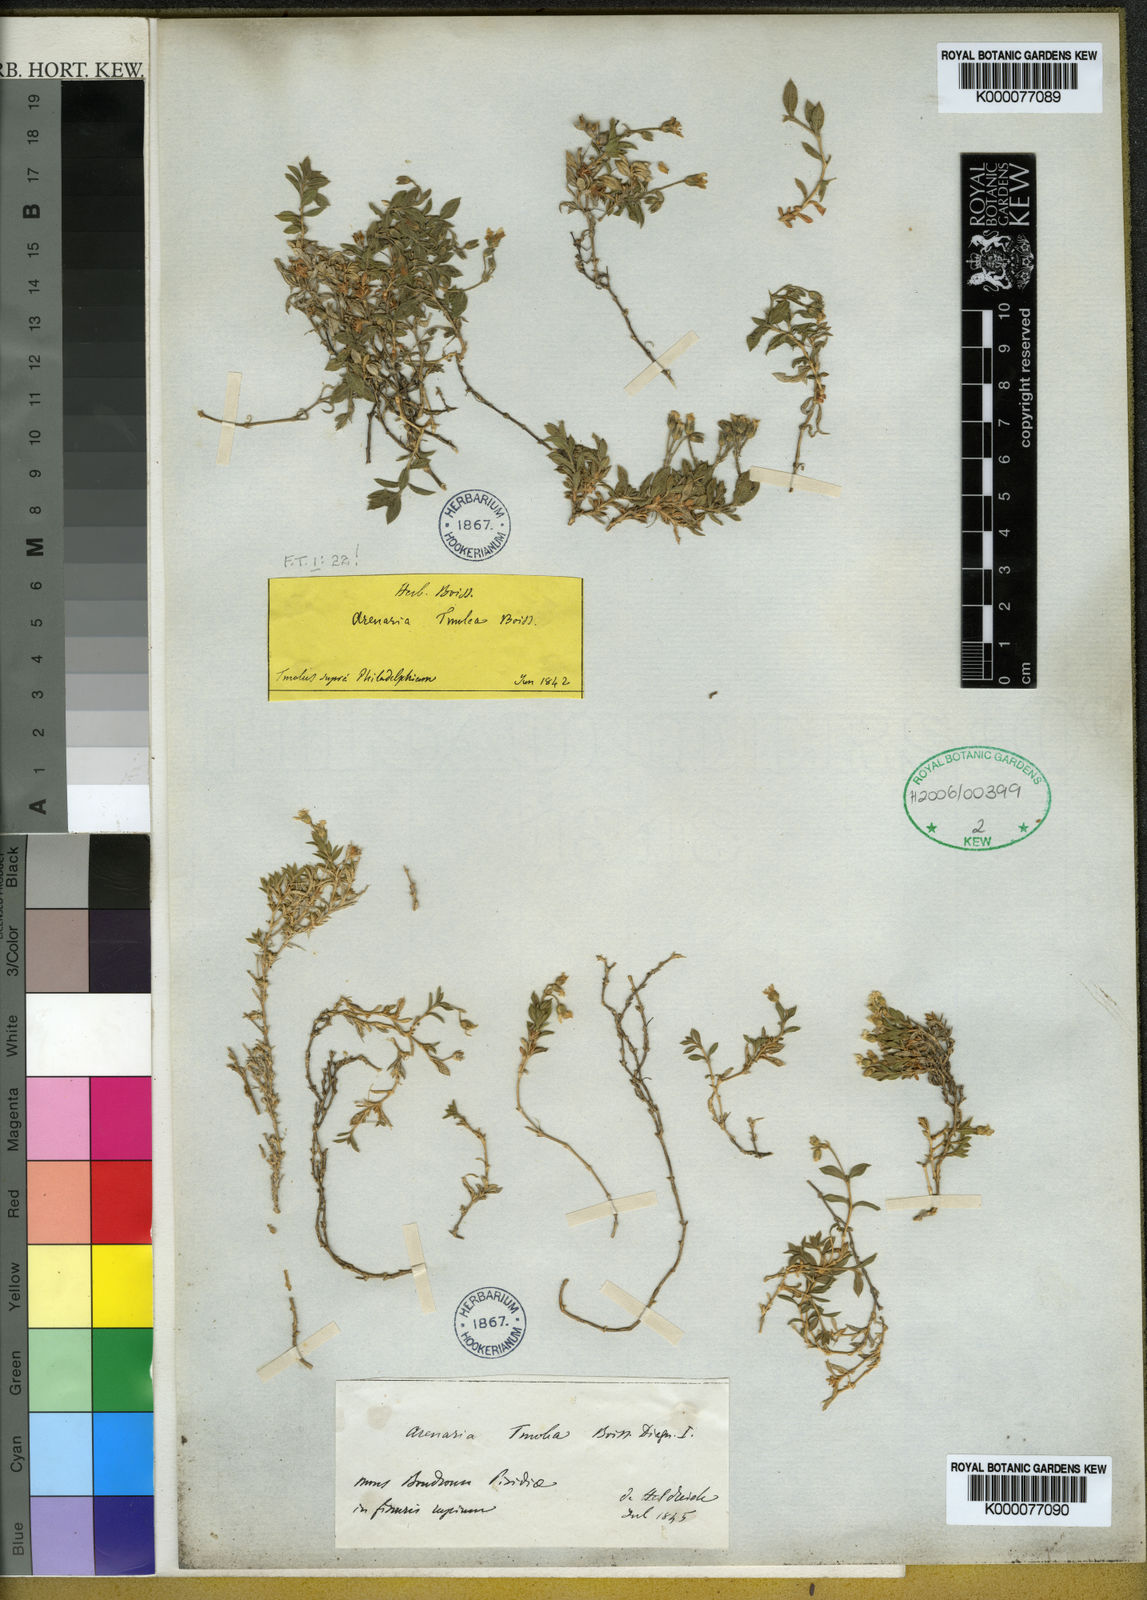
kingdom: Plantae
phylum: Tracheophyta
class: Magnoliopsida
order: Caryophyllales
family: Caryophyllaceae
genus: Arenaria
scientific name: Arenaria uninervia
